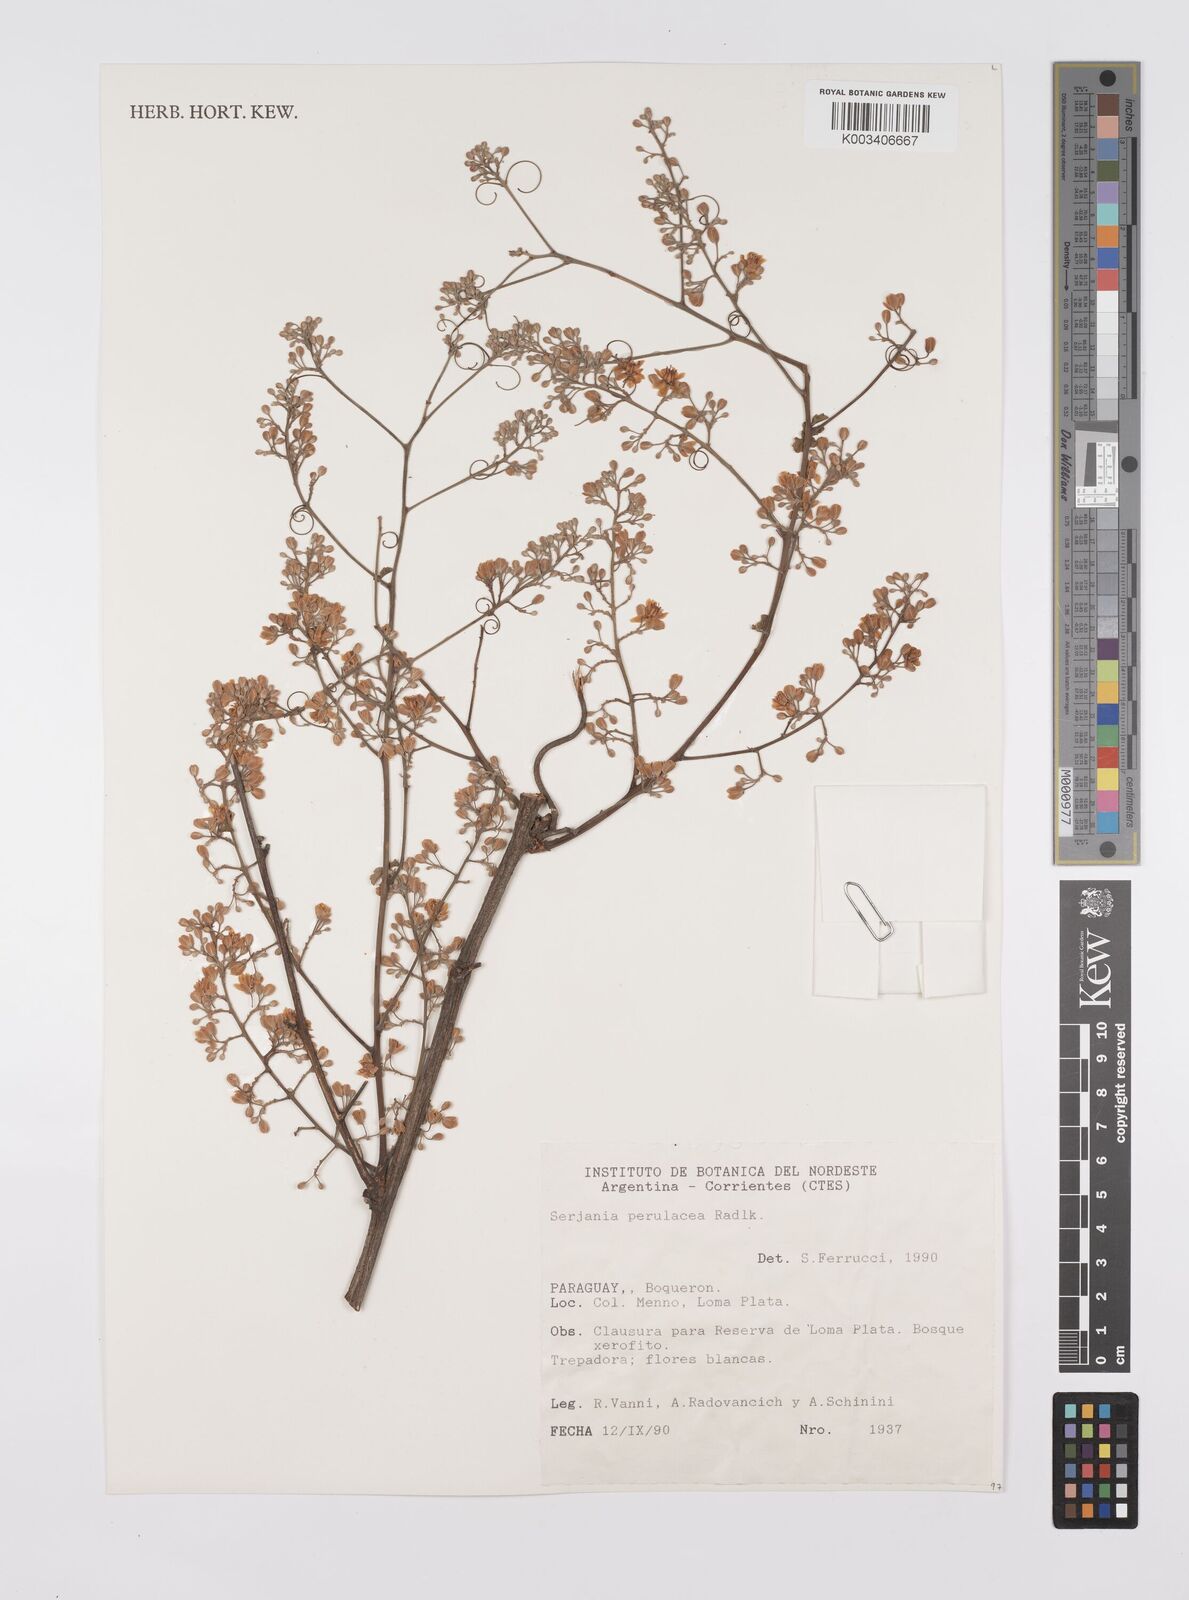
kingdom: Plantae
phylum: Tracheophyta
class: Magnoliopsida
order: Sapindales
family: Sapindaceae
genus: Serjania
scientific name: Serjania perulacea
